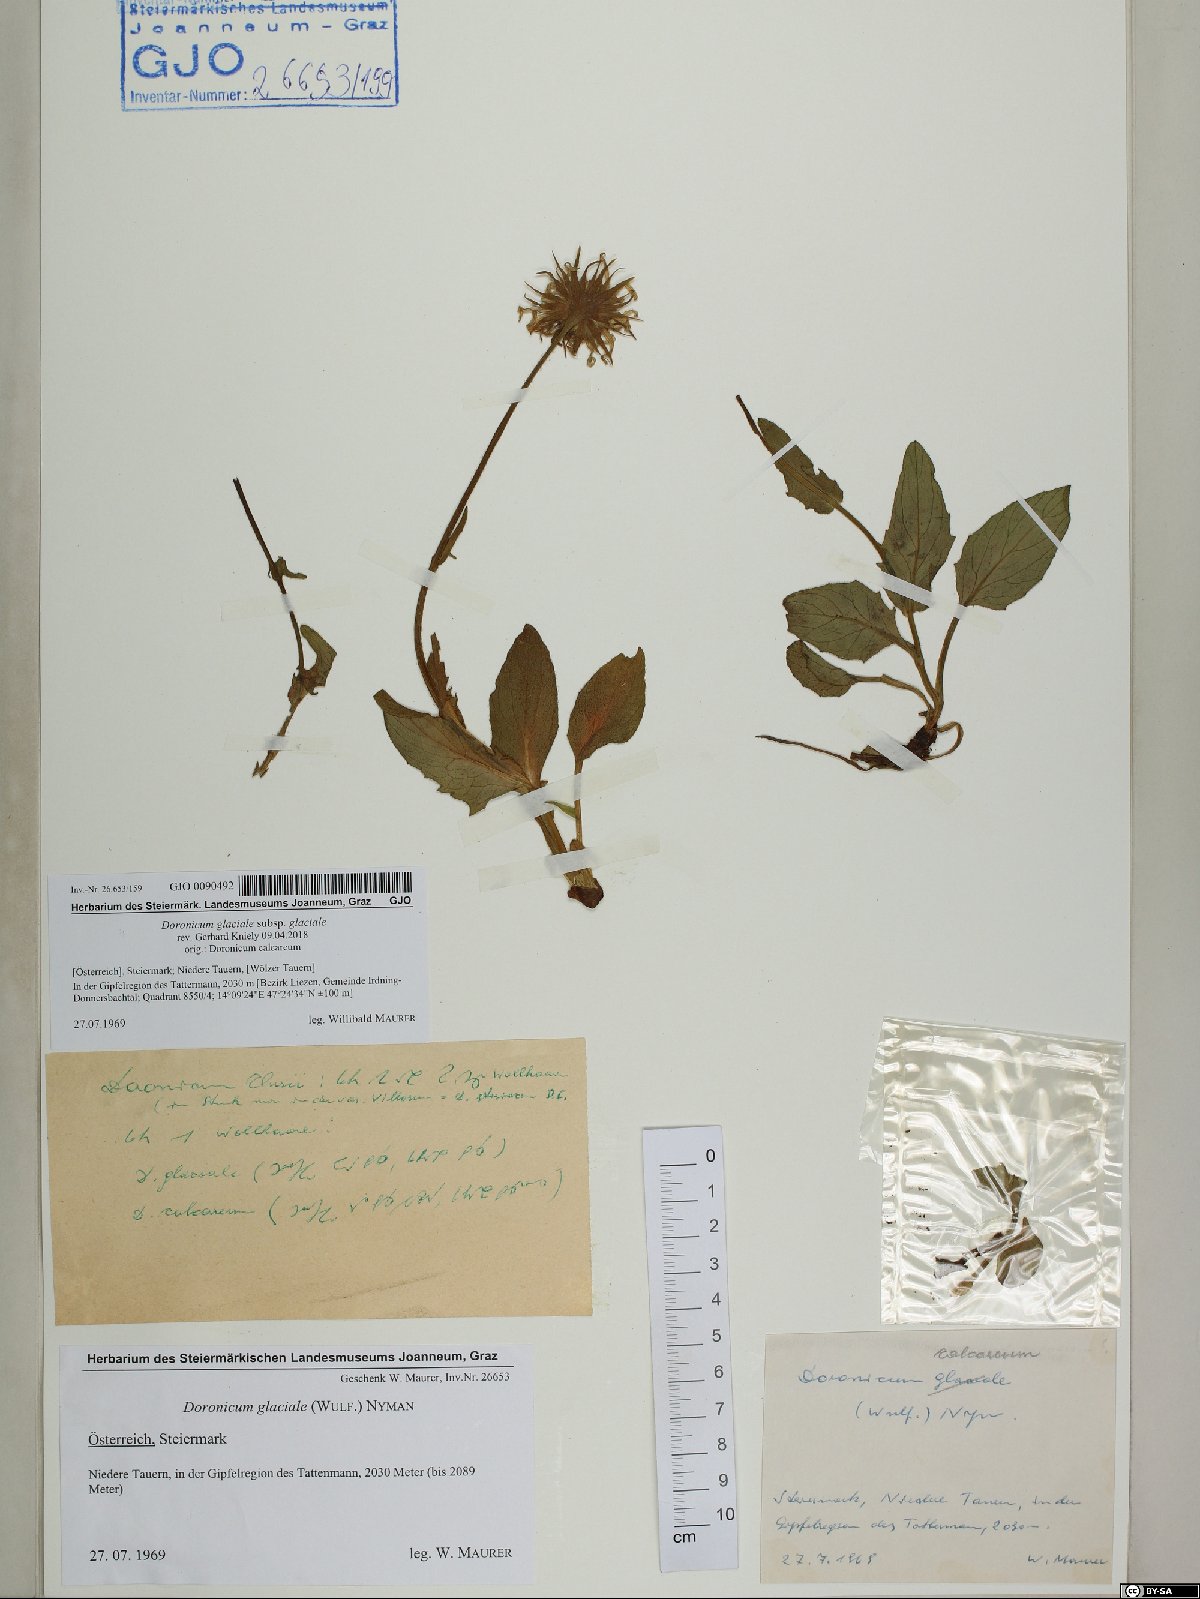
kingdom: Plantae
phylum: Tracheophyta
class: Magnoliopsida
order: Asterales
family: Asteraceae
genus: Doronicum
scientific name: Doronicum glaciale
